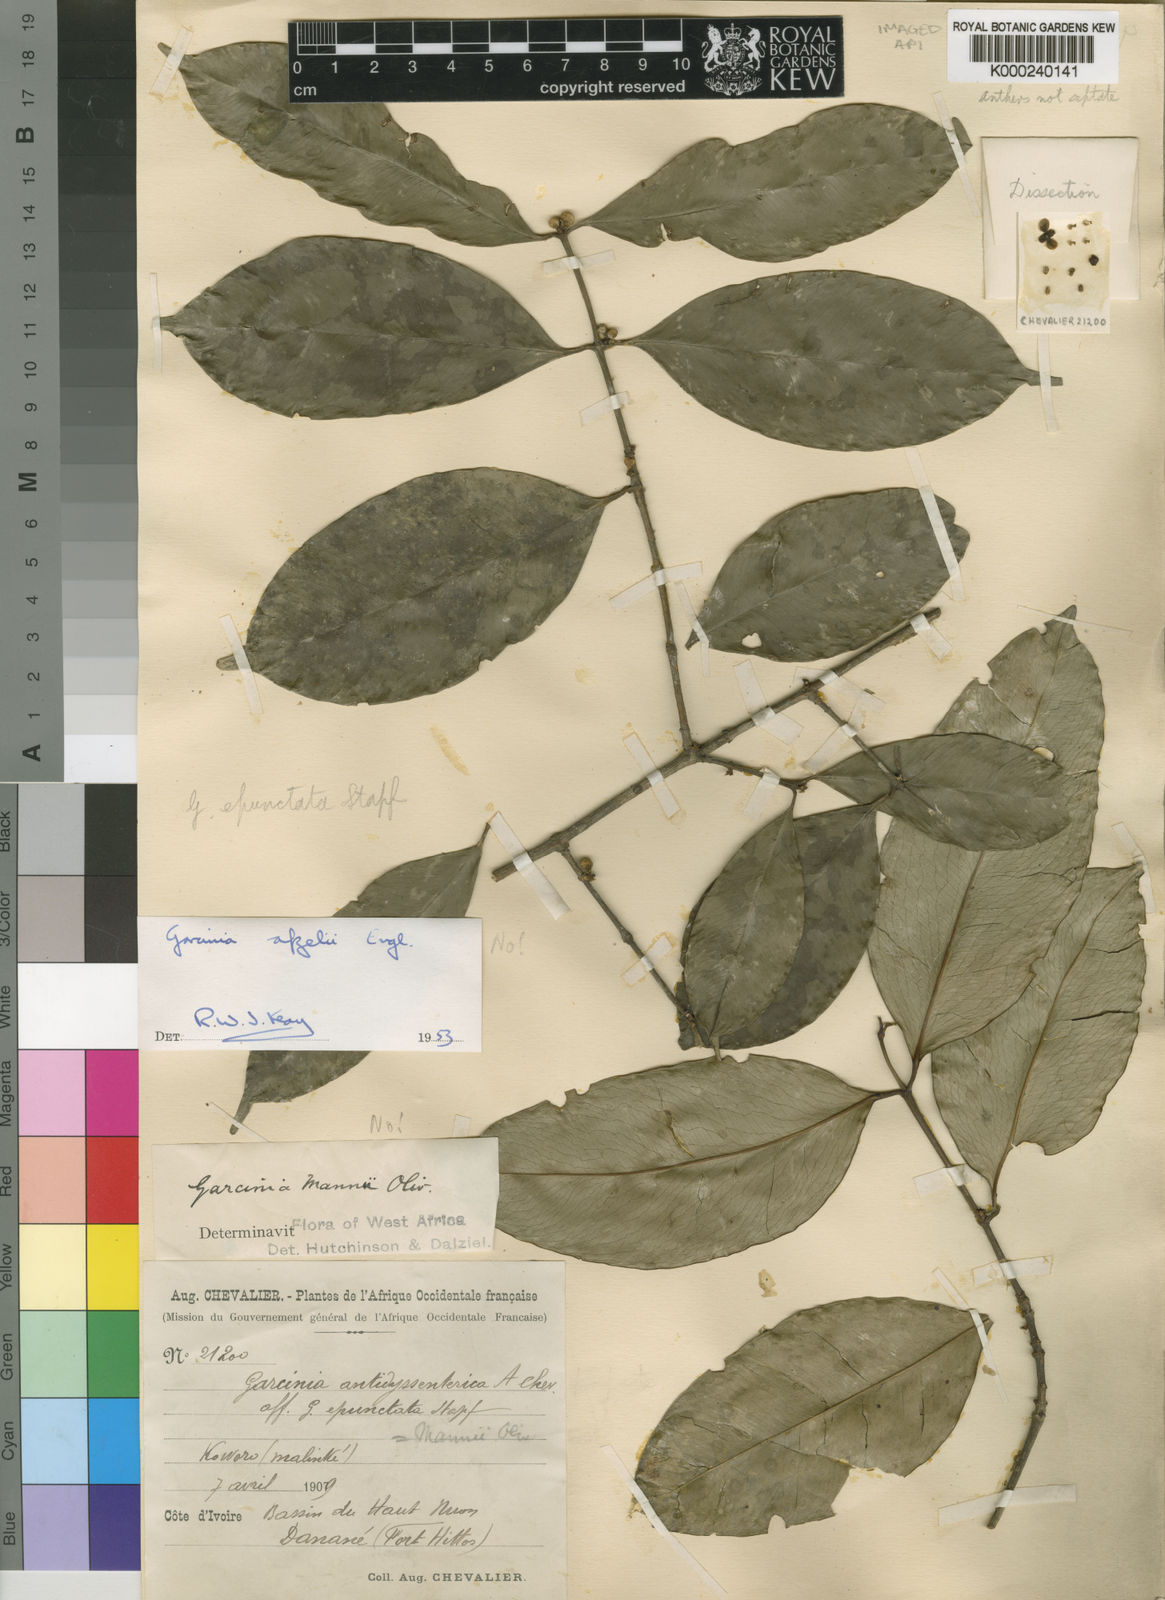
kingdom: Plantae
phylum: Tracheophyta
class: Magnoliopsida
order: Malpighiales
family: Clusiaceae
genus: Garcinia
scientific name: Garcinia epunctata
